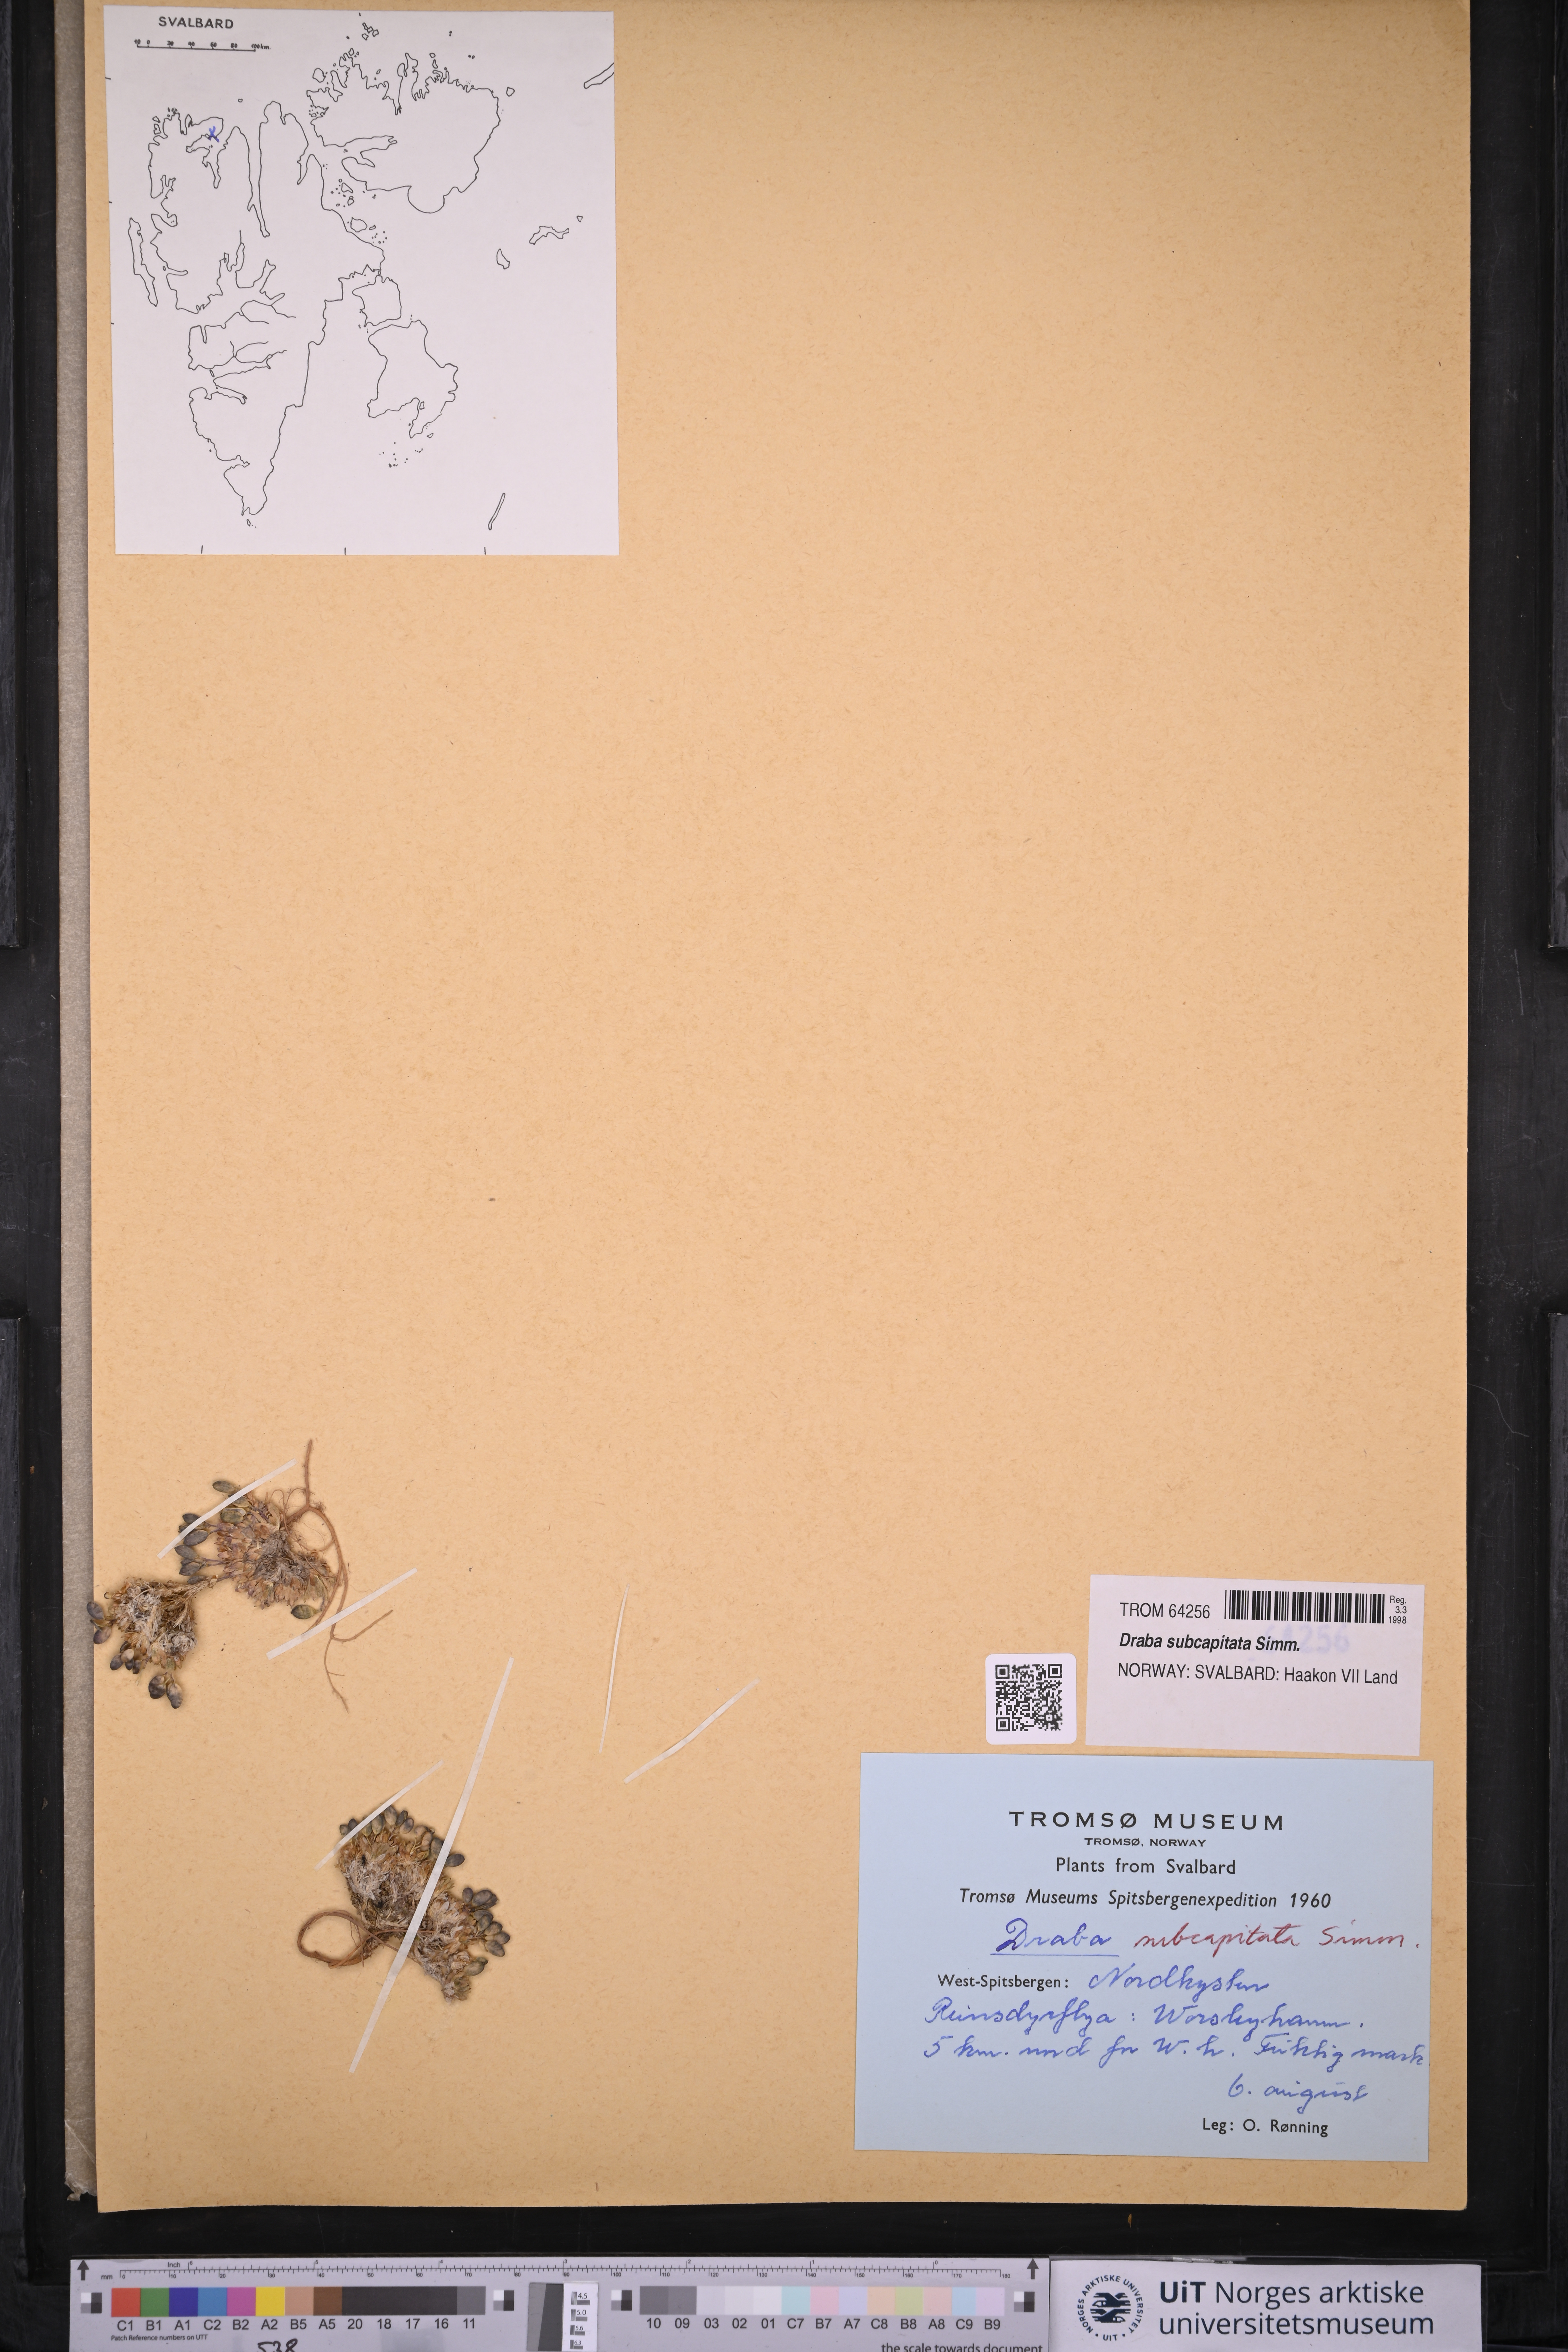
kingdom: Plantae
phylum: Tracheophyta
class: Magnoliopsida
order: Brassicales
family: Brassicaceae
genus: Draba
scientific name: Draba subcapitata
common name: Ellesmere island draba
